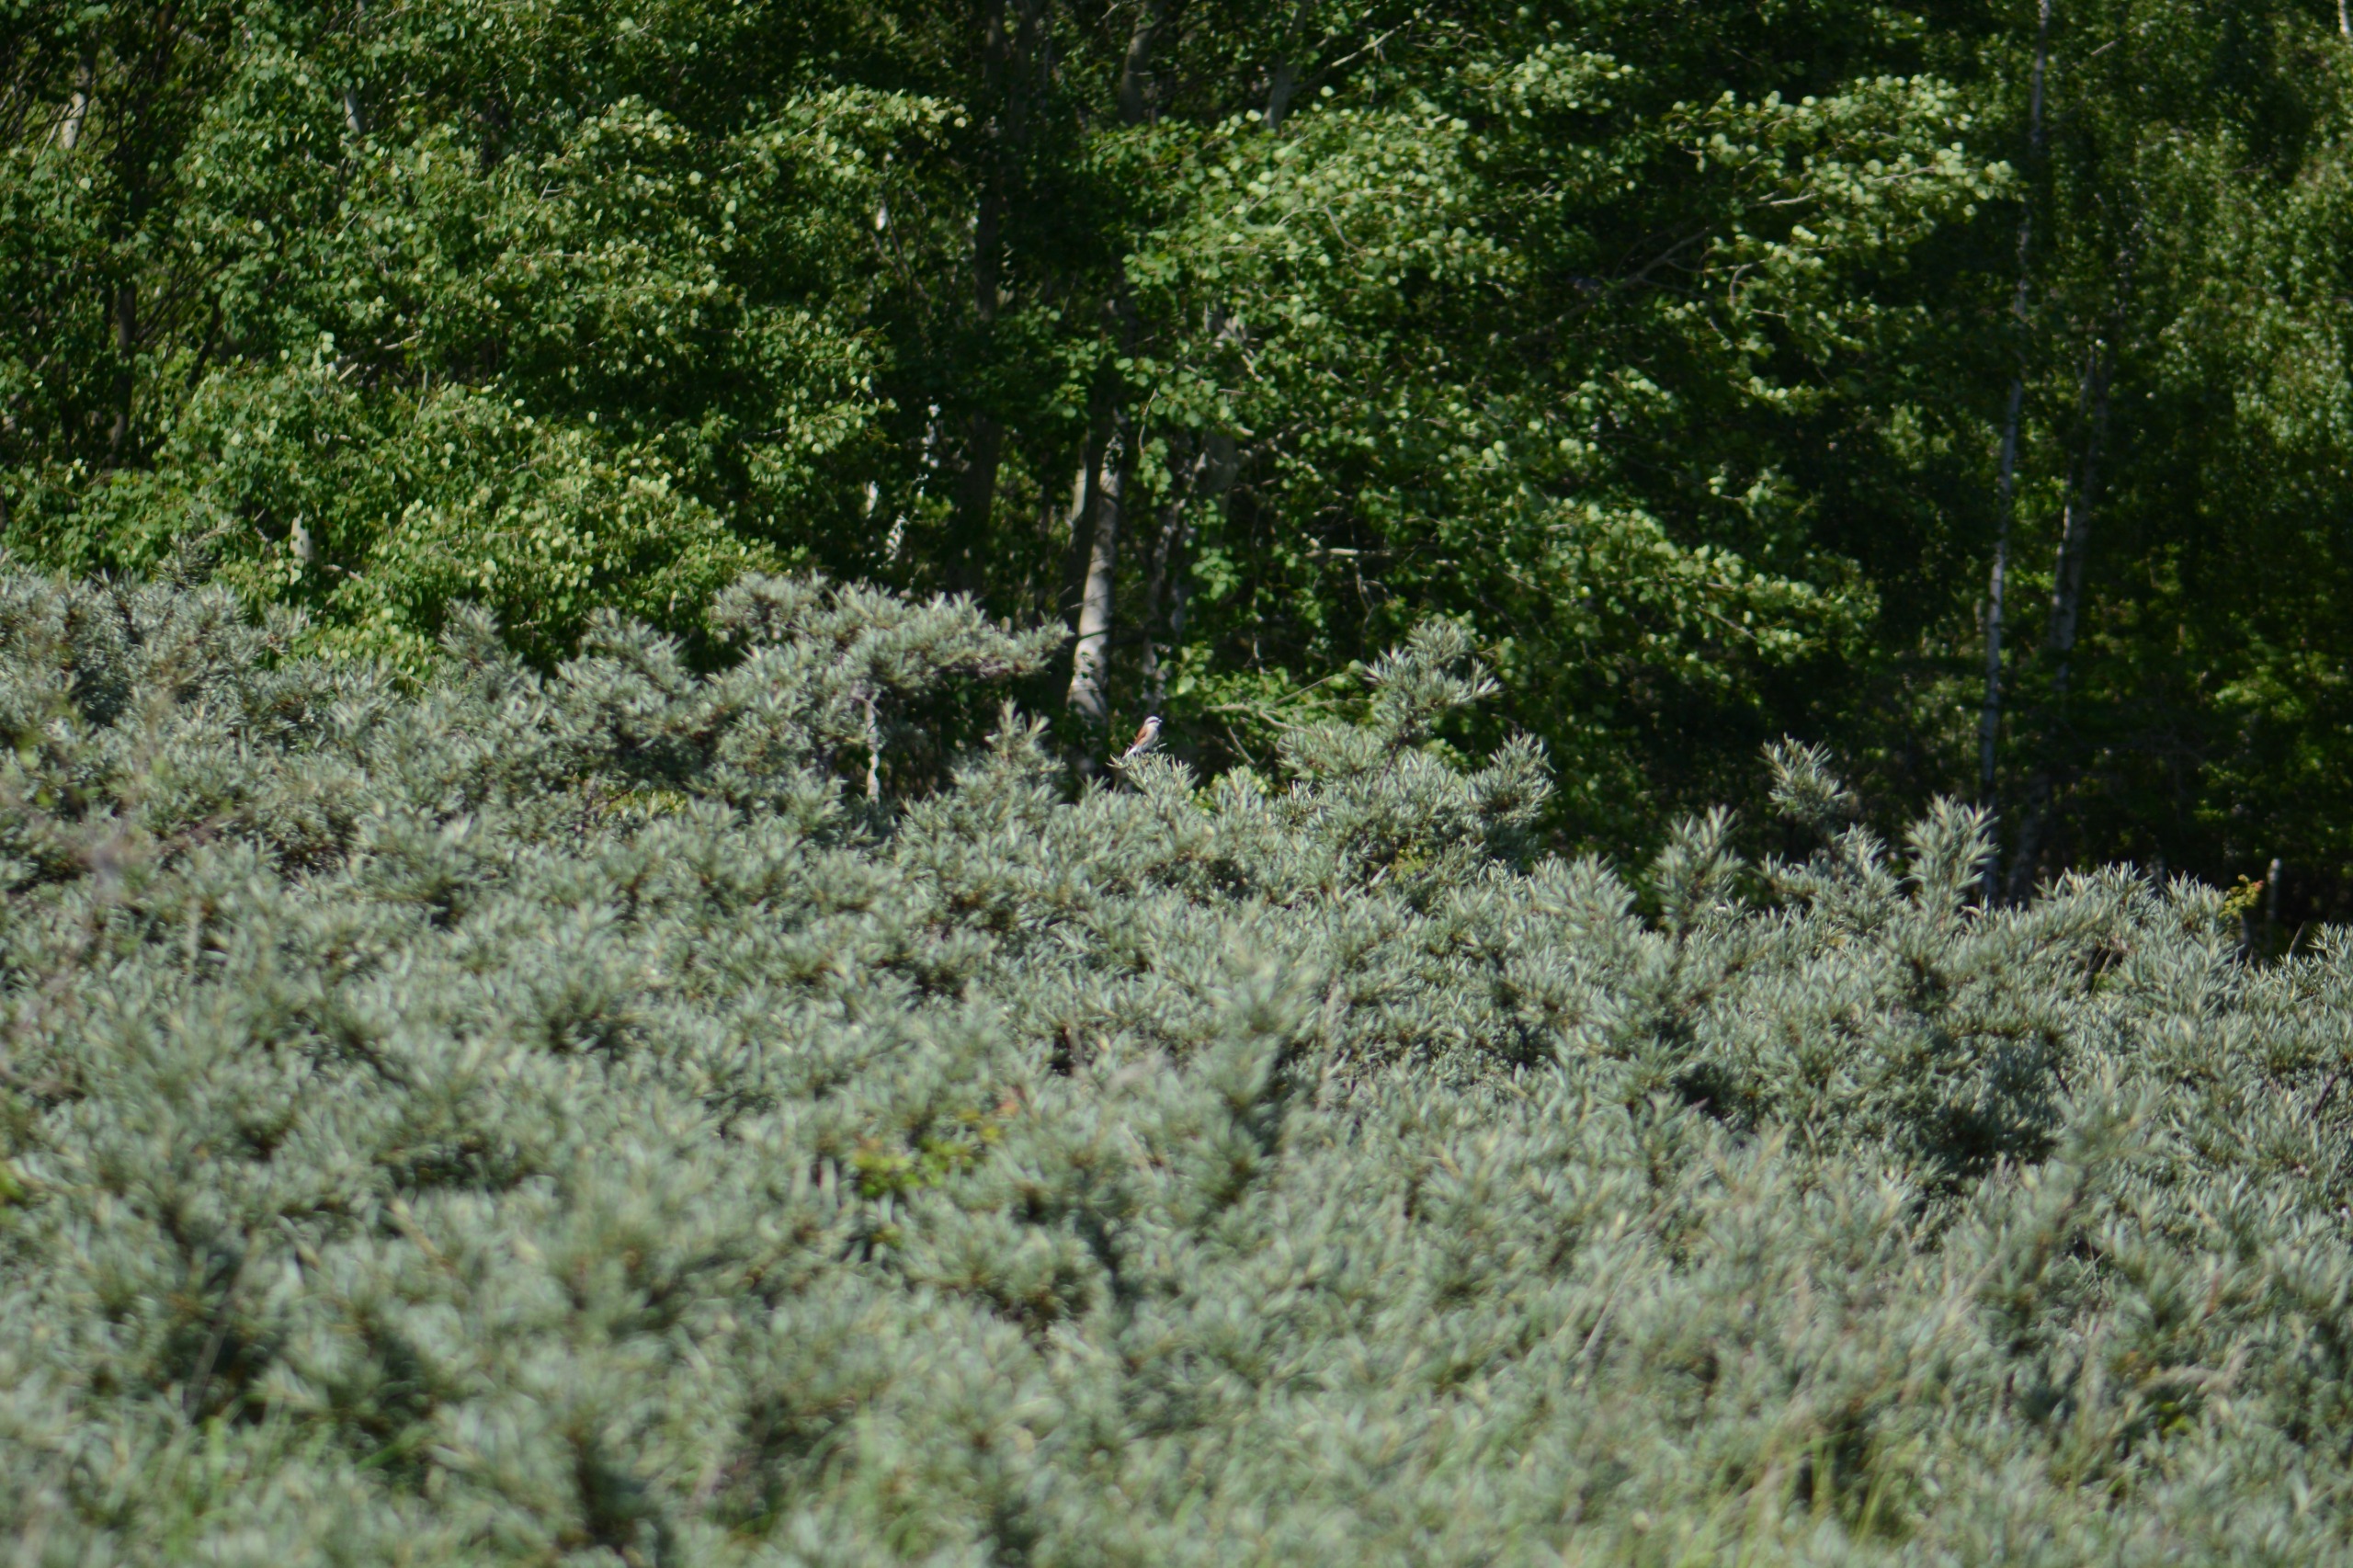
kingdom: Animalia
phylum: Chordata
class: Aves
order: Passeriformes
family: Laniidae
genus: Lanius
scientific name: Lanius collurio
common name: Rødrygget tornskade
